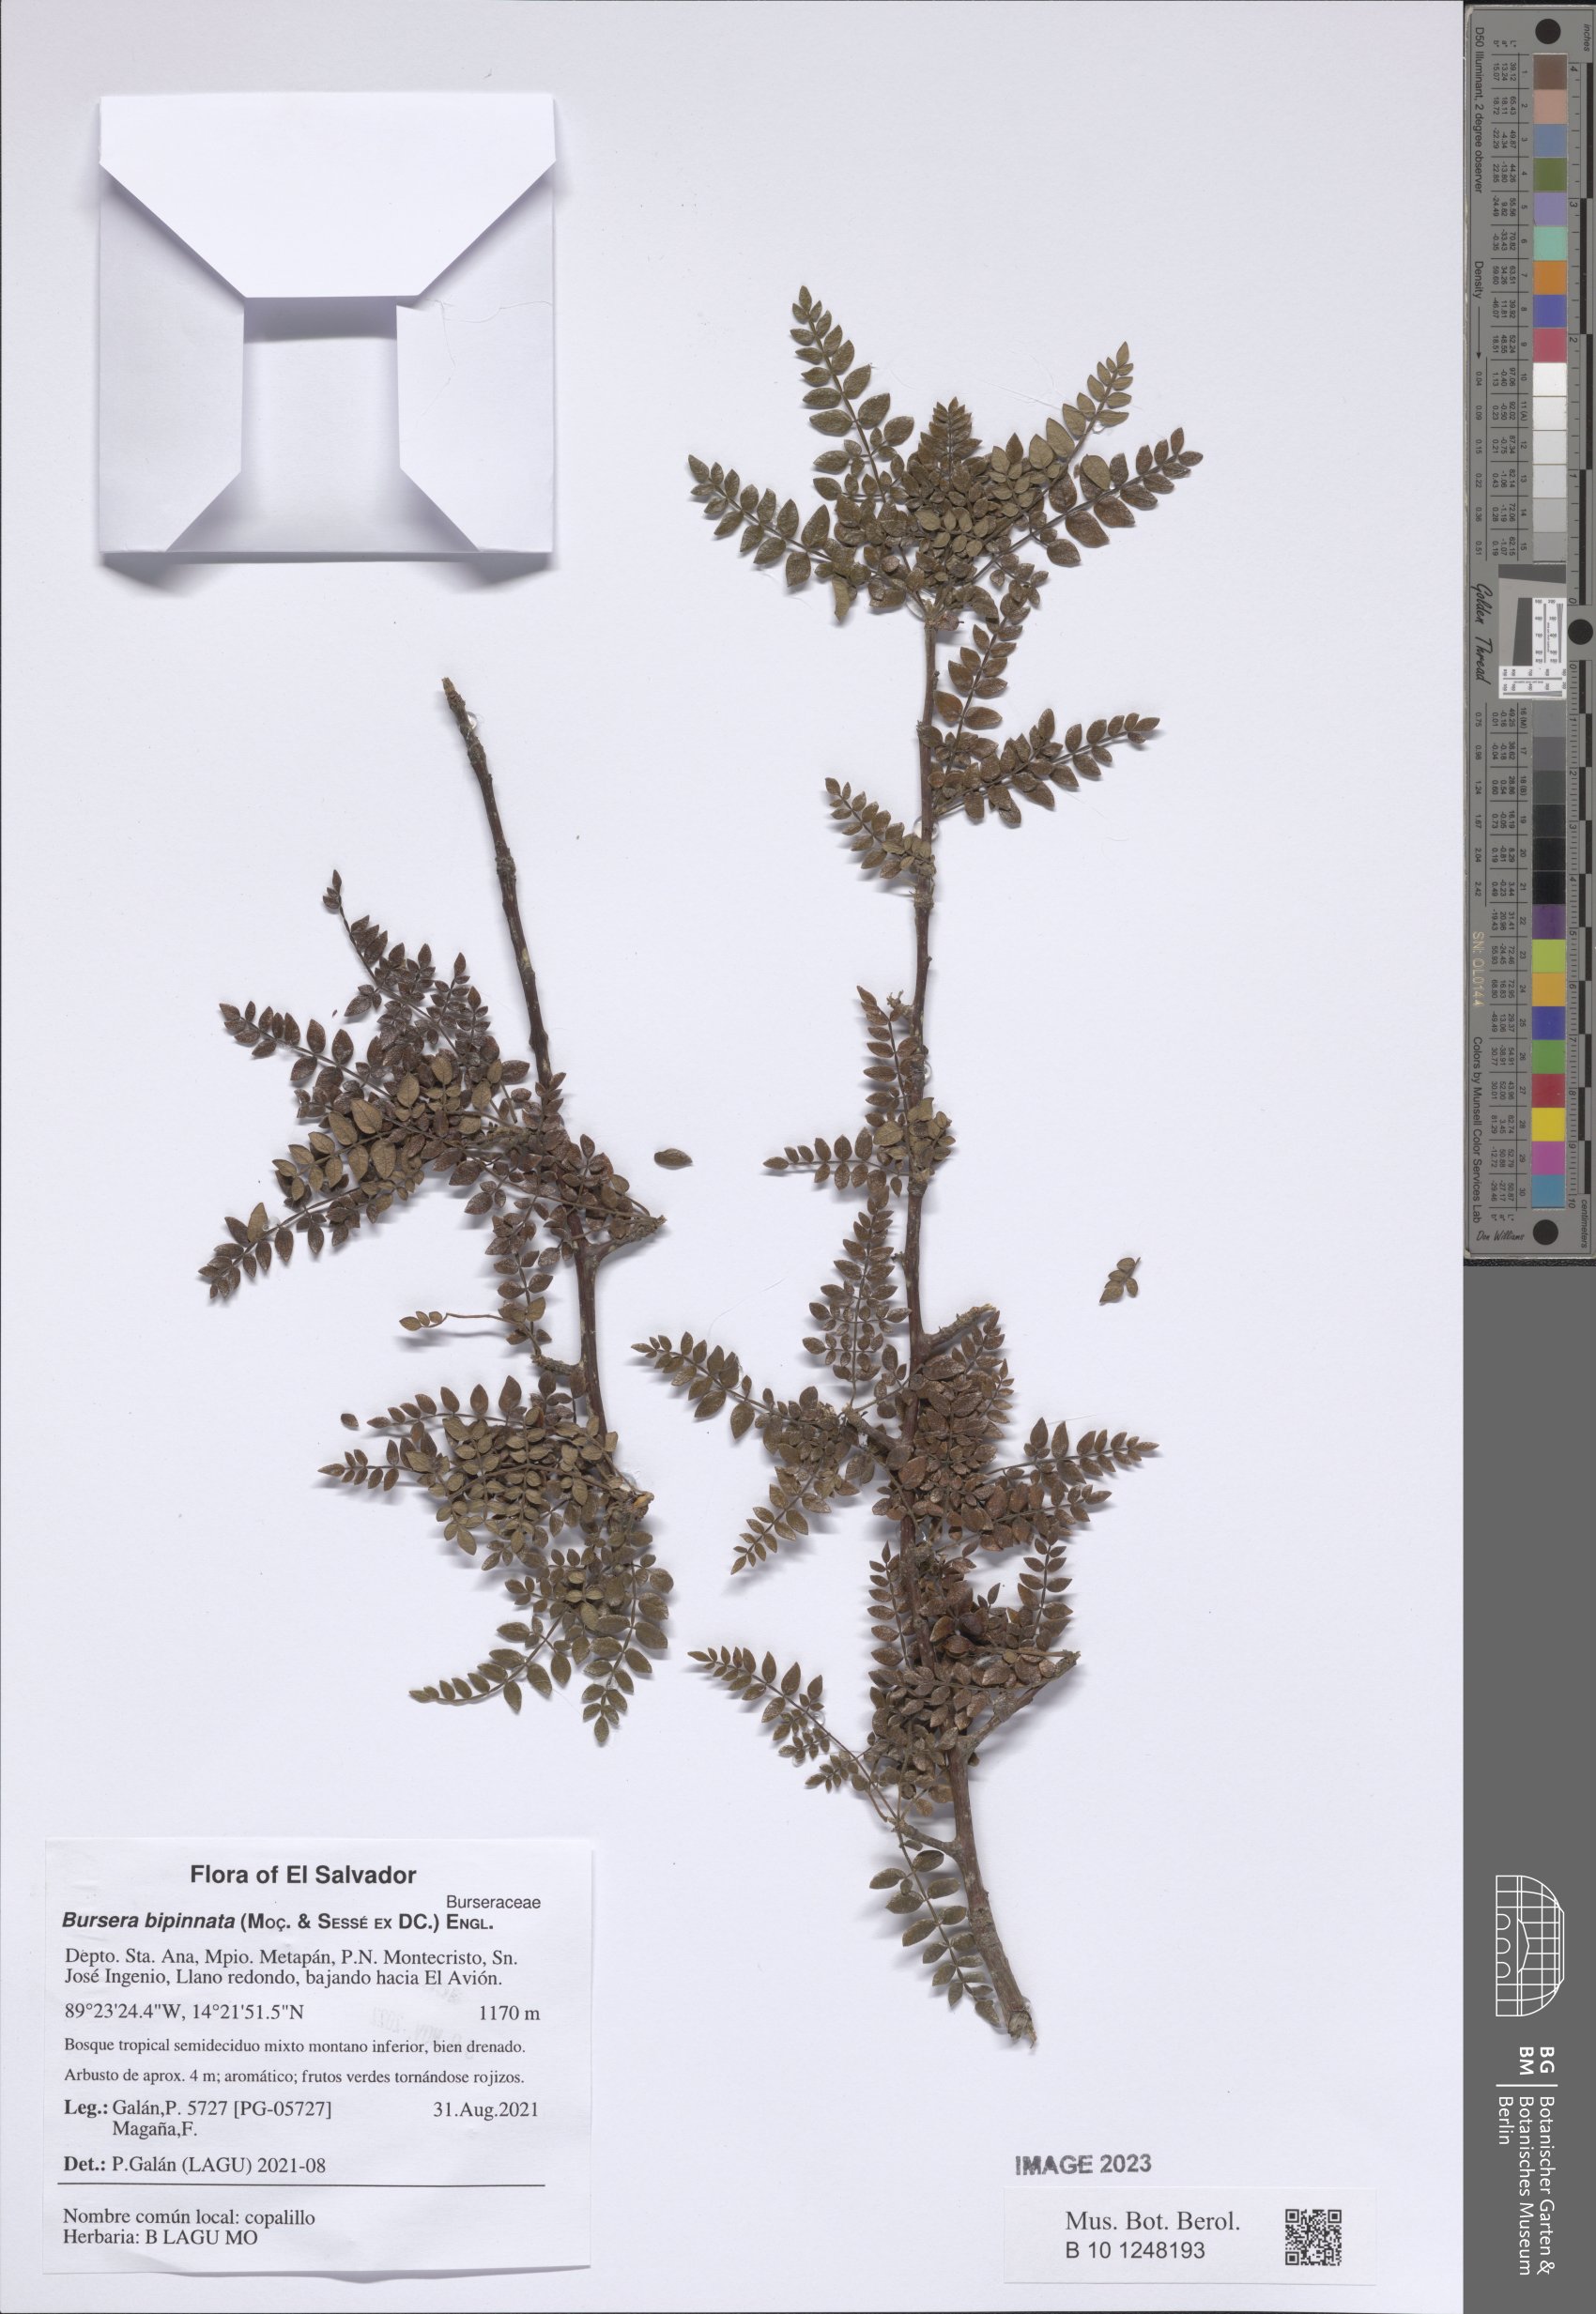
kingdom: Plantae
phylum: Tracheophyta
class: Magnoliopsida
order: Sapindales
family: Burseraceae
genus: Bursera
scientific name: Bursera bipinnata
